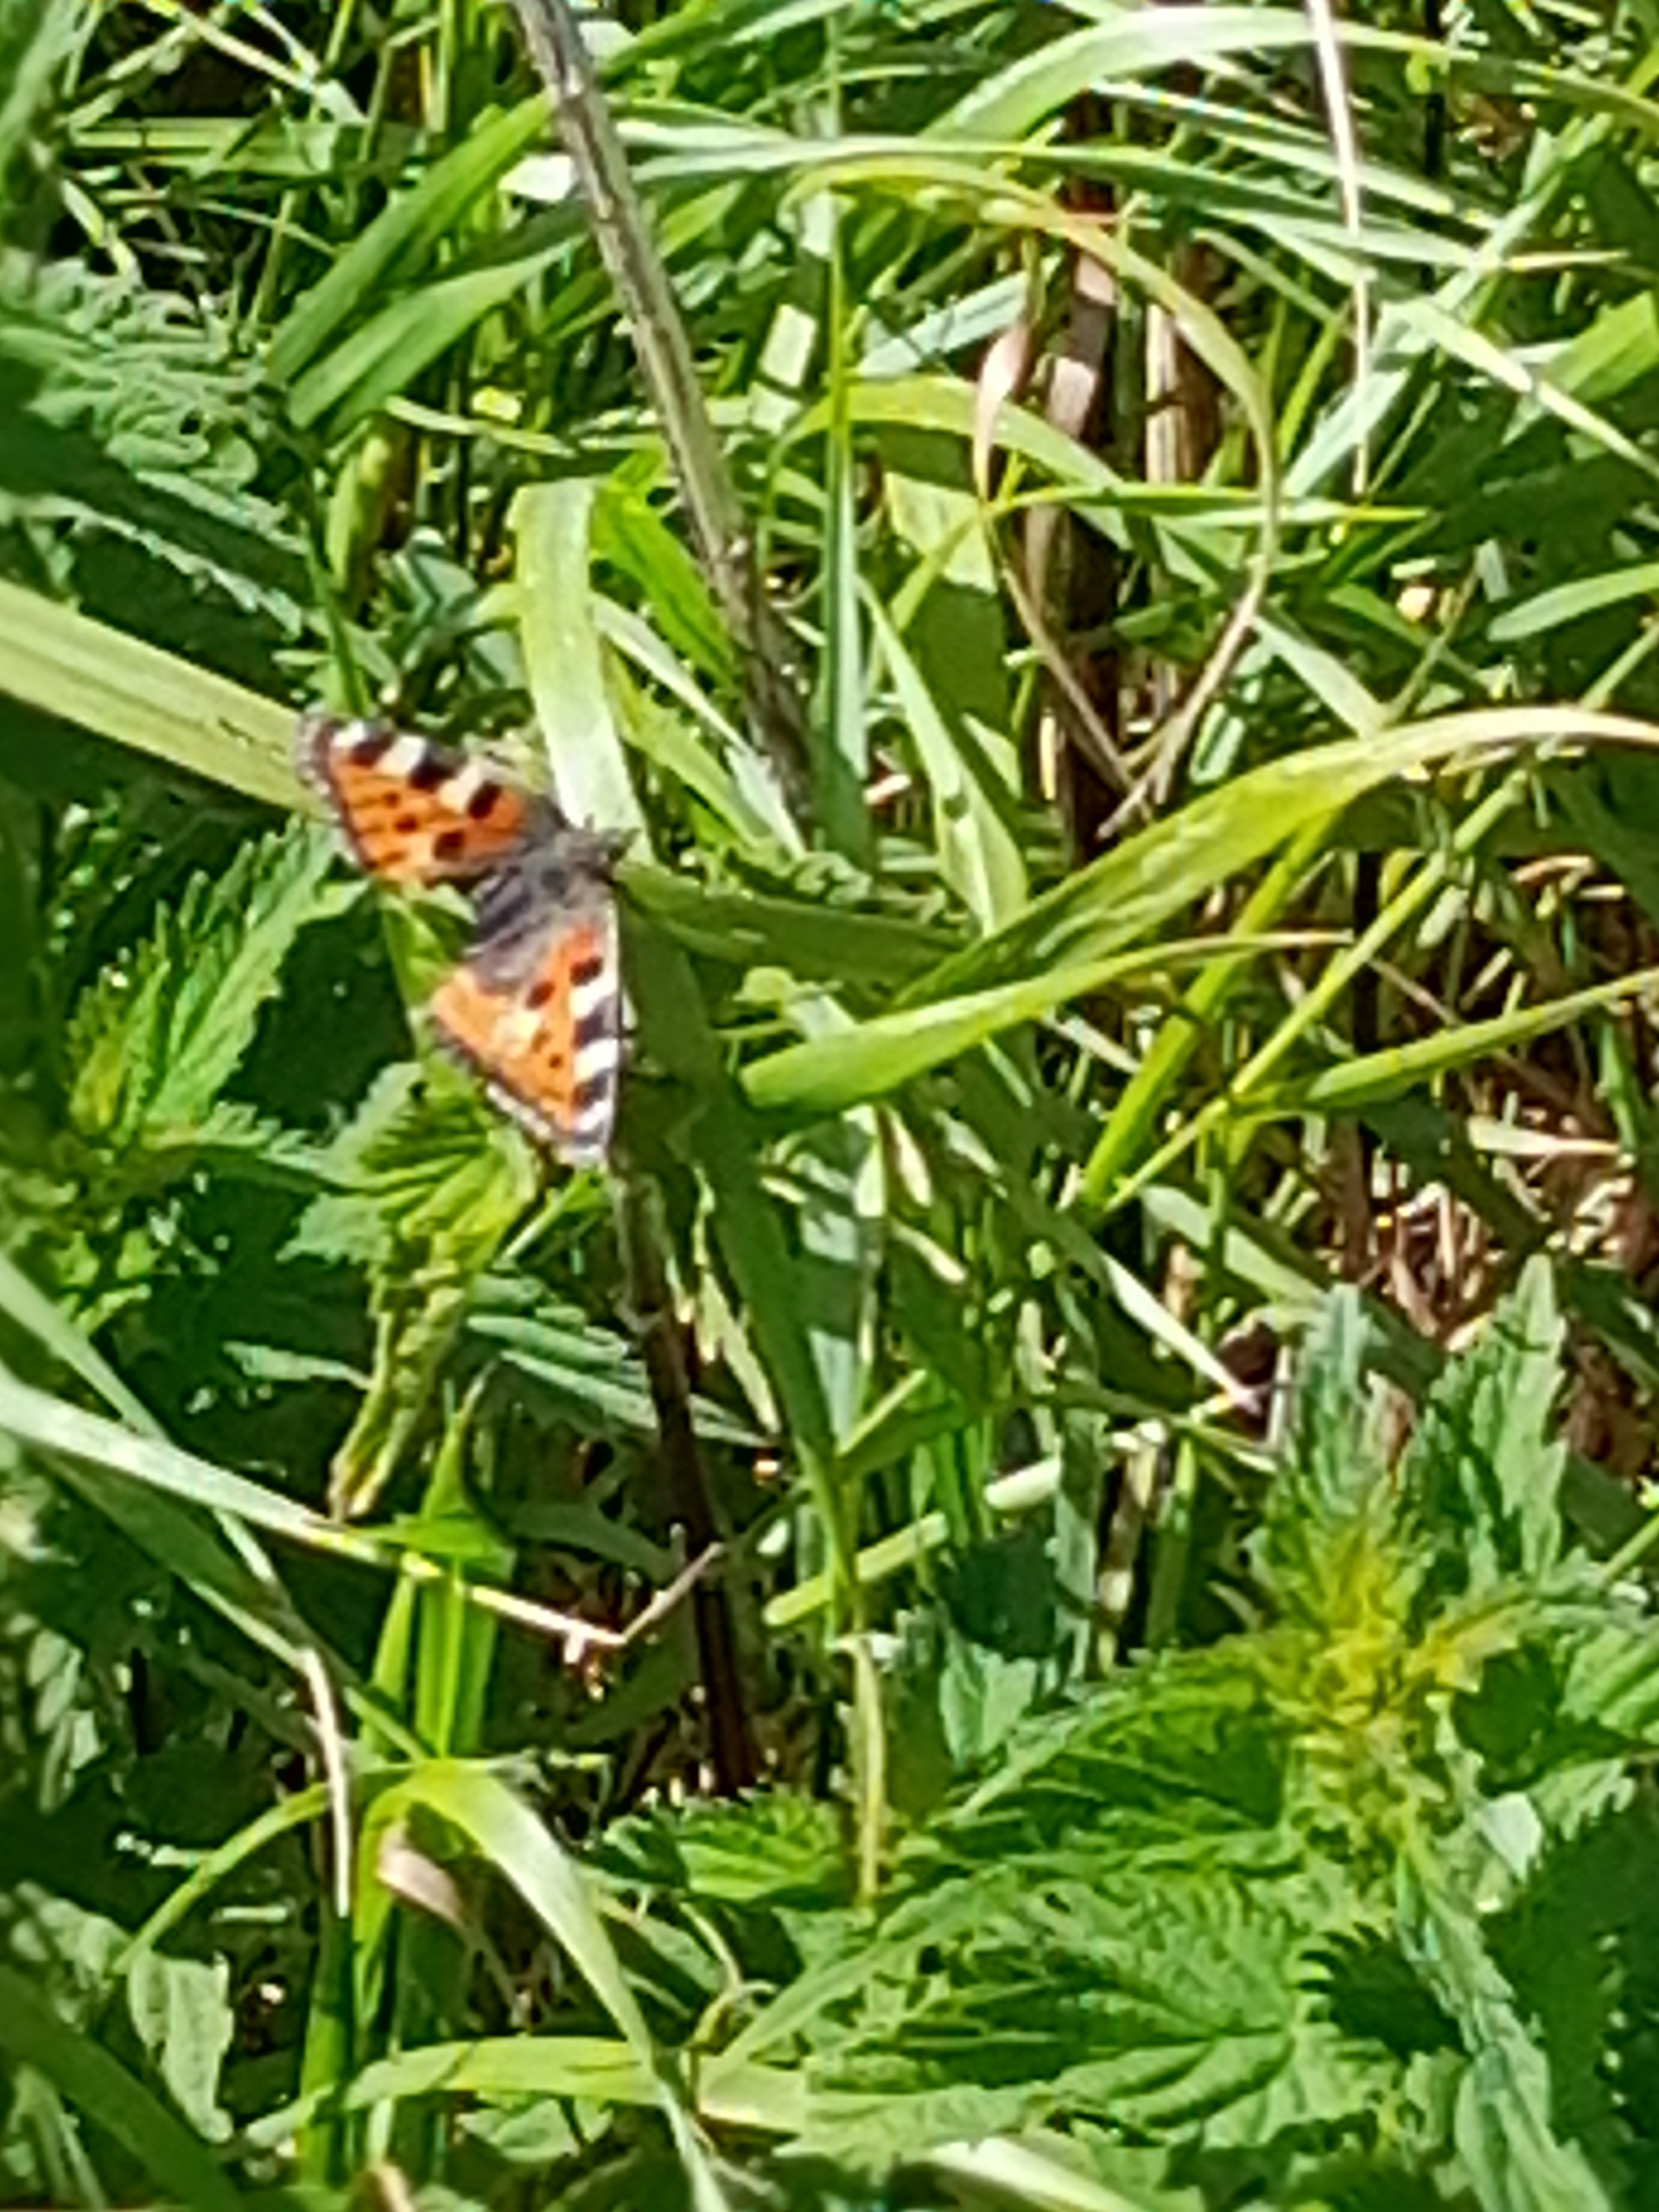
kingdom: Animalia
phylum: Arthropoda
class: Insecta
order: Lepidoptera
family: Nymphalidae
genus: Aglais
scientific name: Aglais urticae
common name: Nældens takvinge
